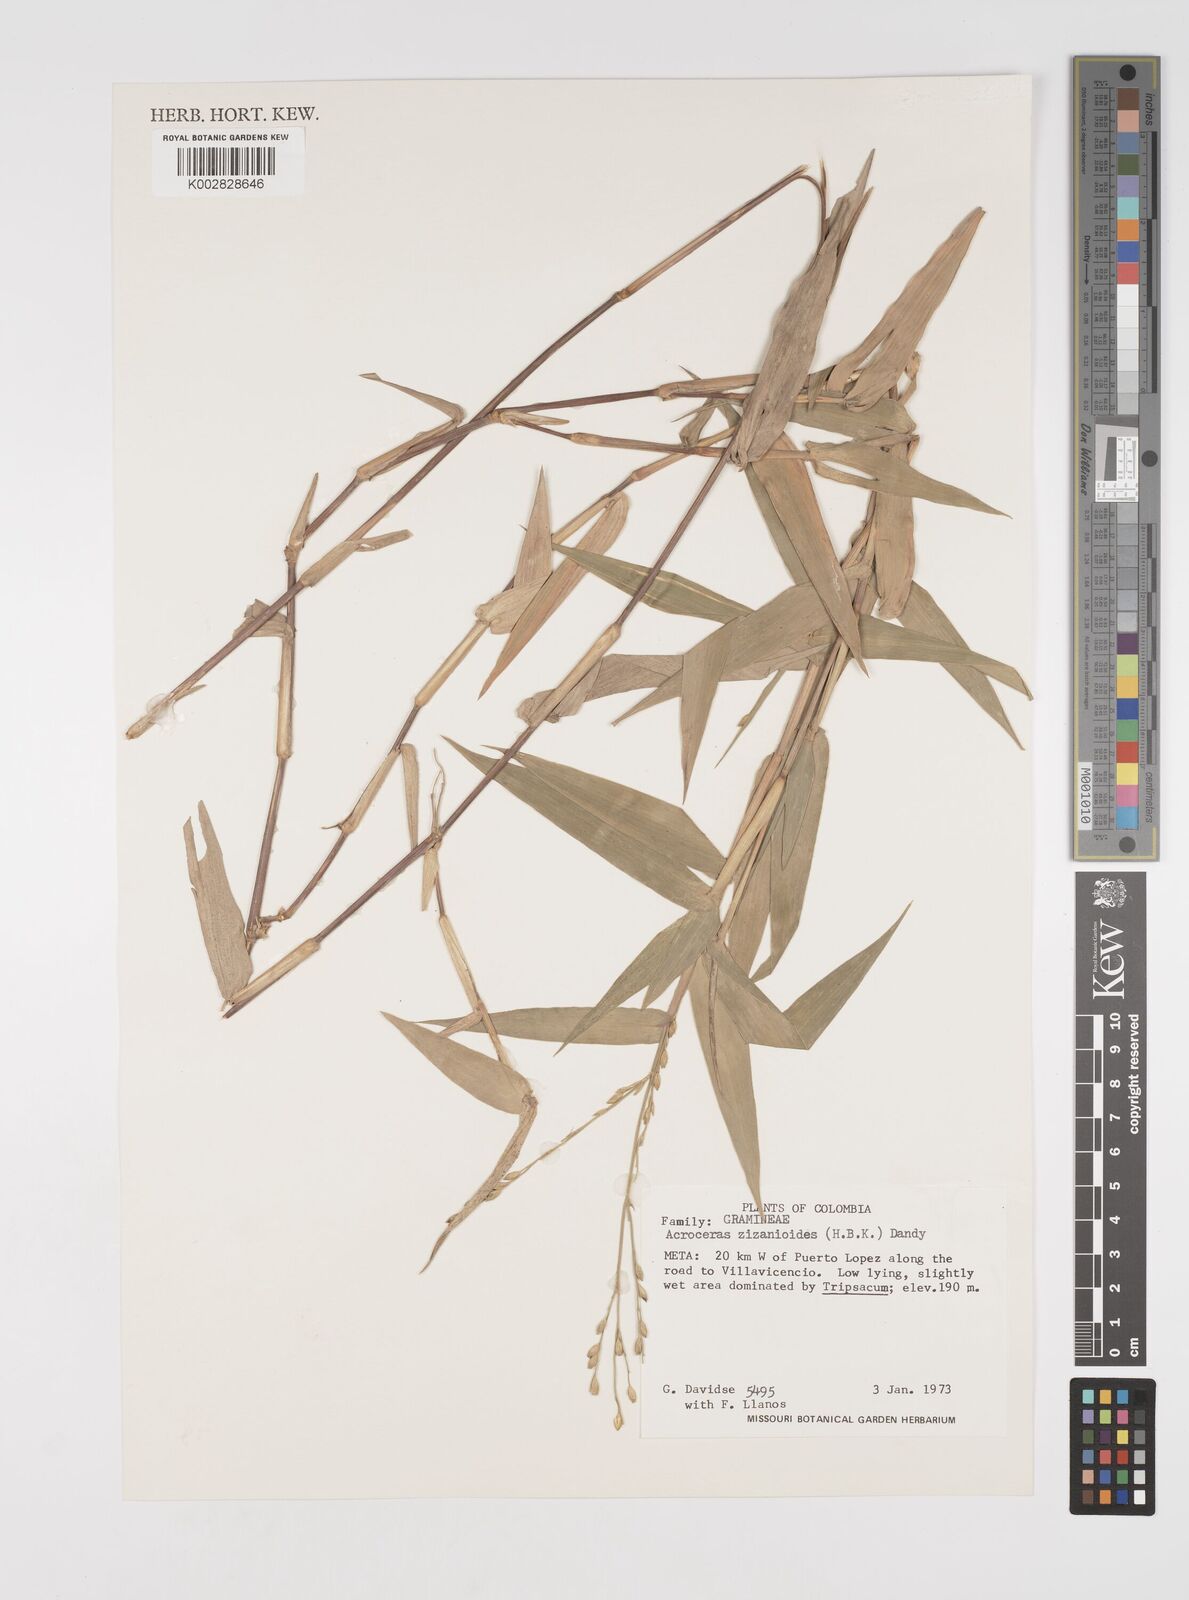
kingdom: Plantae
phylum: Tracheophyta
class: Liliopsida
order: Poales
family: Poaceae
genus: Acroceras
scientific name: Acroceras zizanioides
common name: Oat grass
